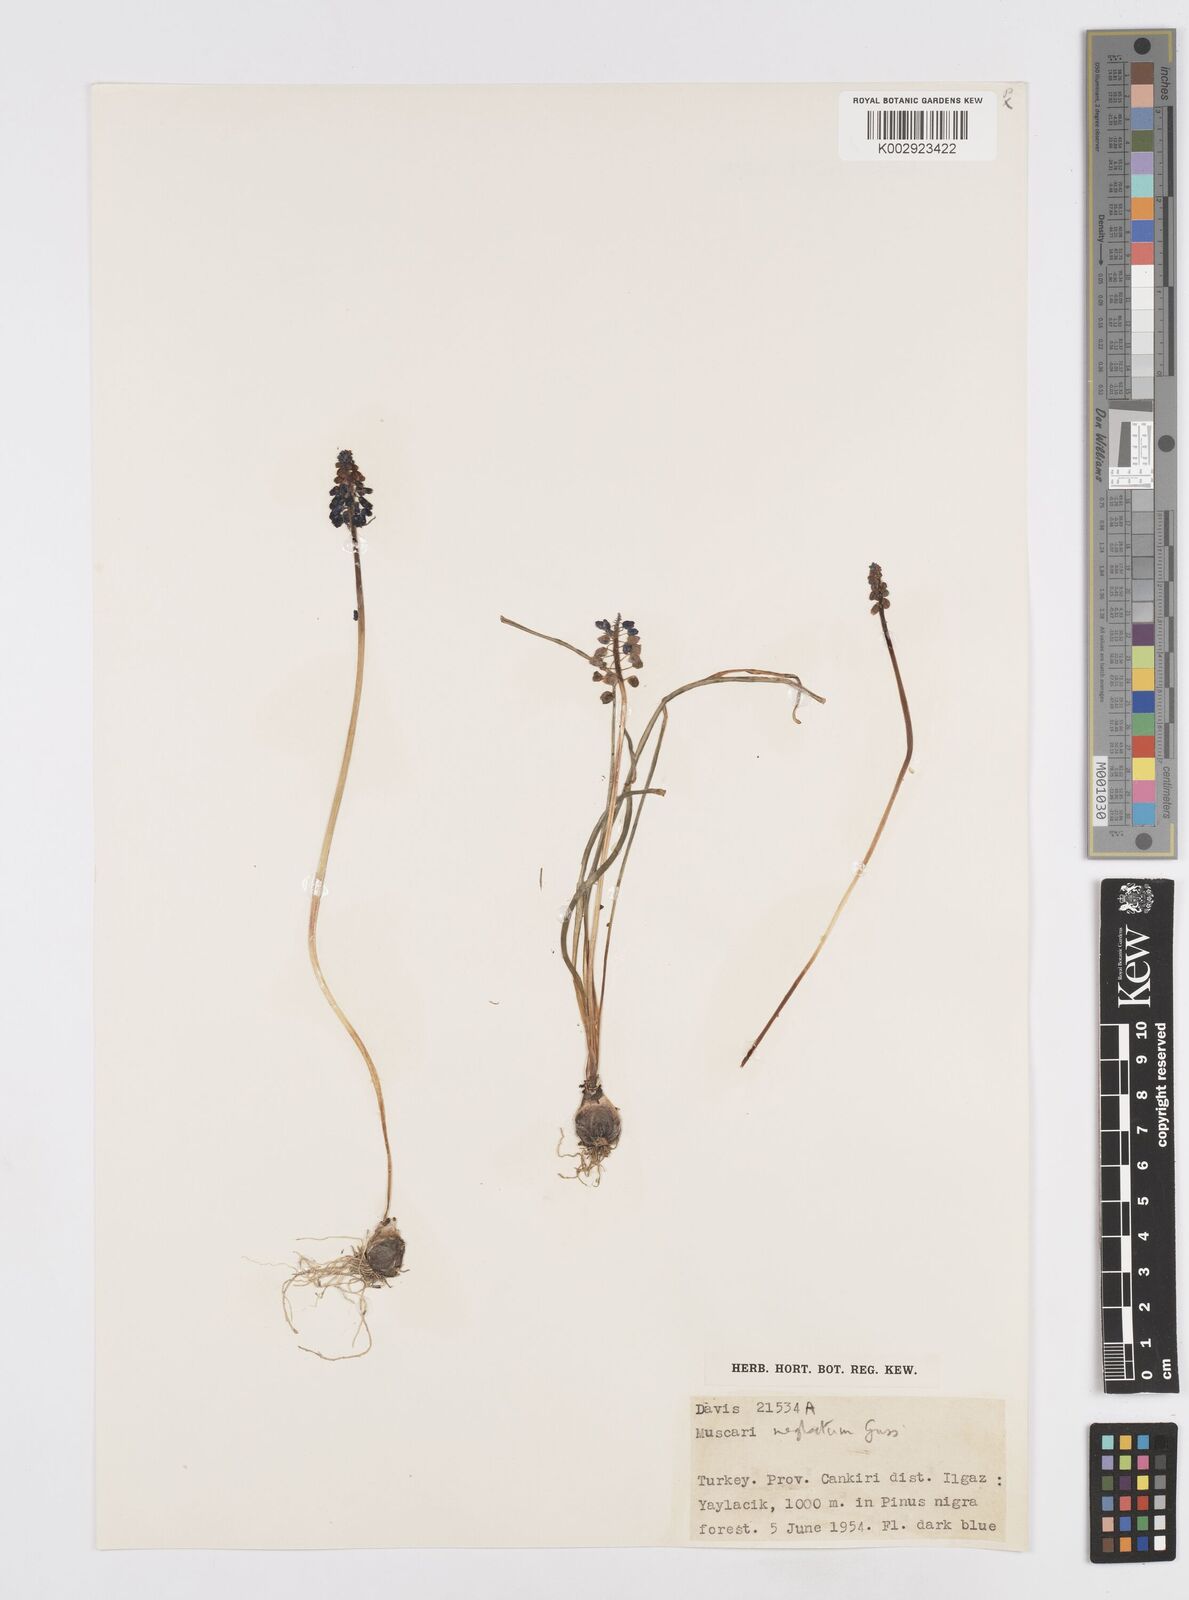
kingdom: Plantae
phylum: Tracheophyta
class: Liliopsida
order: Asparagales
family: Asparagaceae
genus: Muscari
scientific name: Muscari neglectum
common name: Grape-hyacinth
